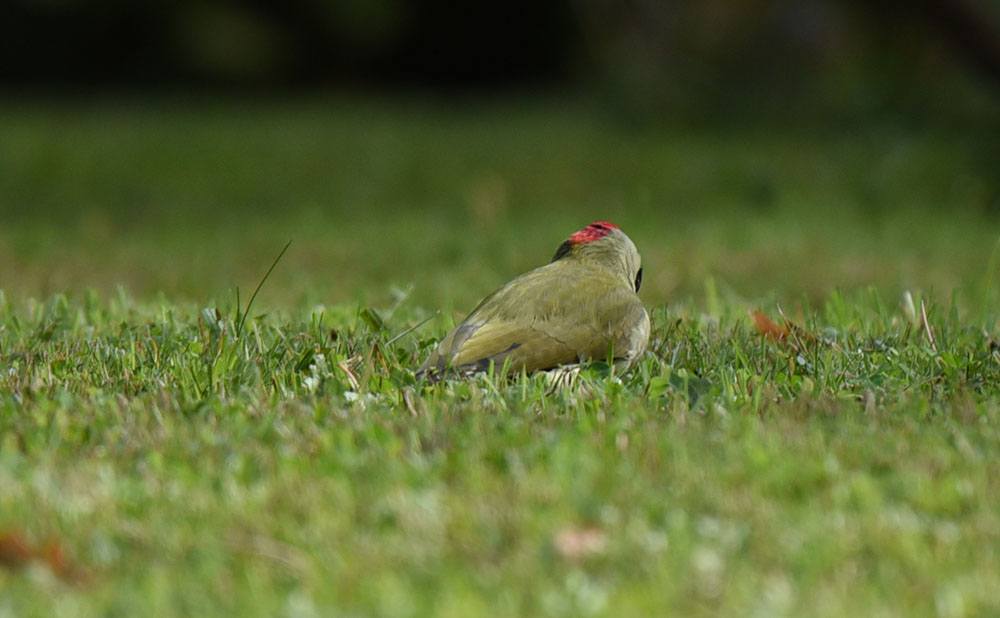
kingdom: Animalia
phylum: Chordata
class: Aves
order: Piciformes
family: Picidae
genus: Picus
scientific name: Picus viridis
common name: European green woodpecker
